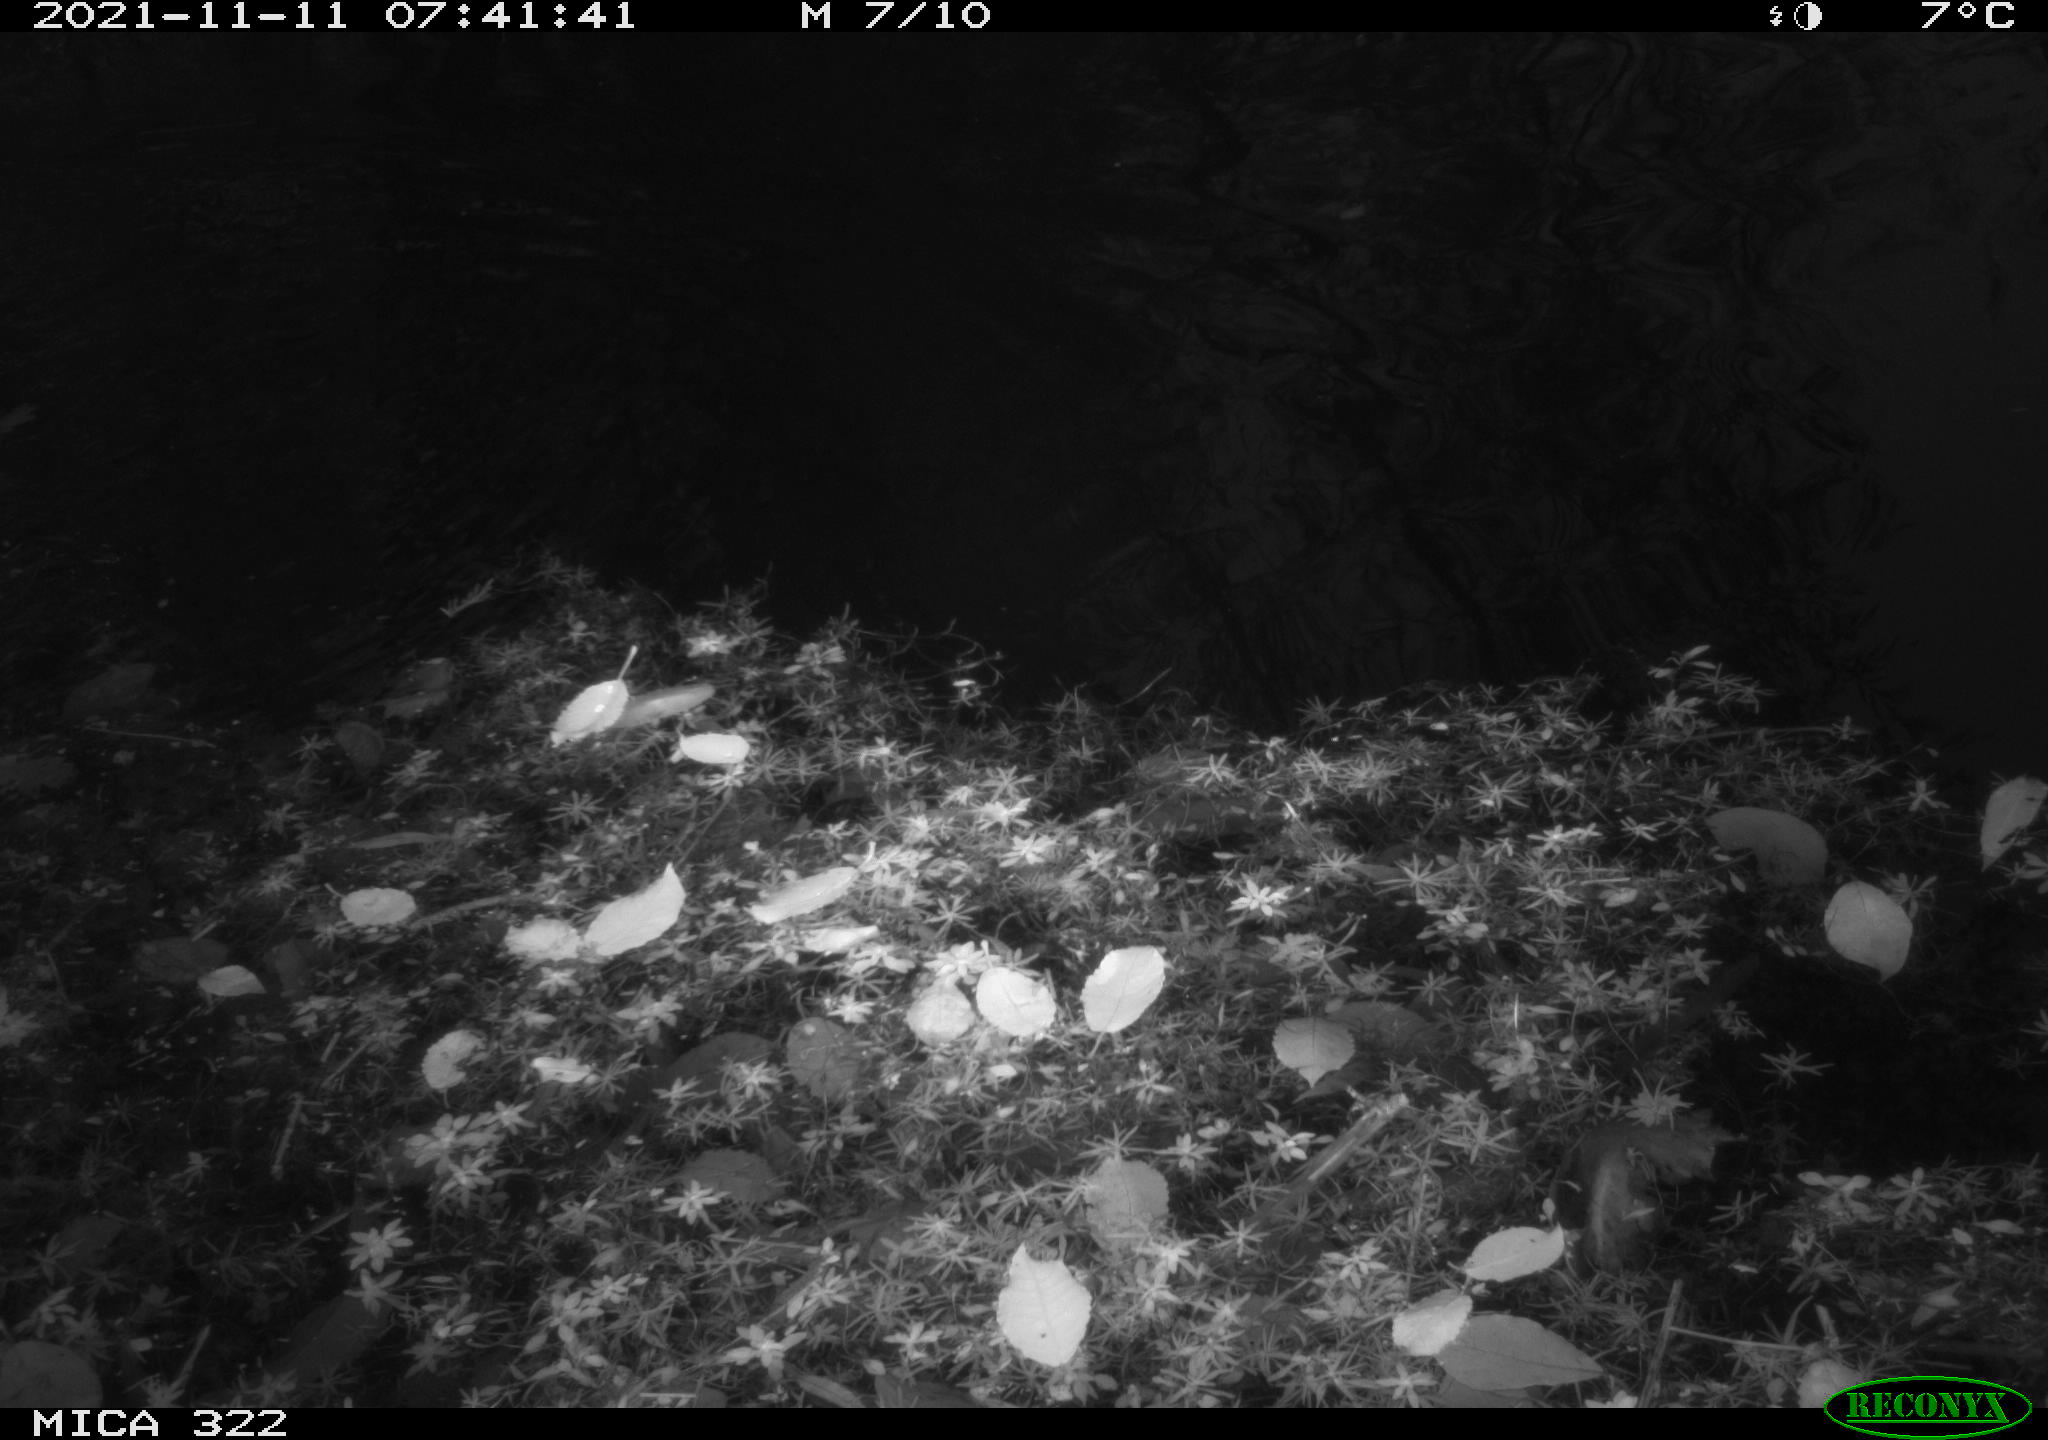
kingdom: Animalia
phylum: Chordata
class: Aves
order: Gruiformes
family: Rallidae
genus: Gallinula
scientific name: Gallinula chloropus
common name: Common moorhen
